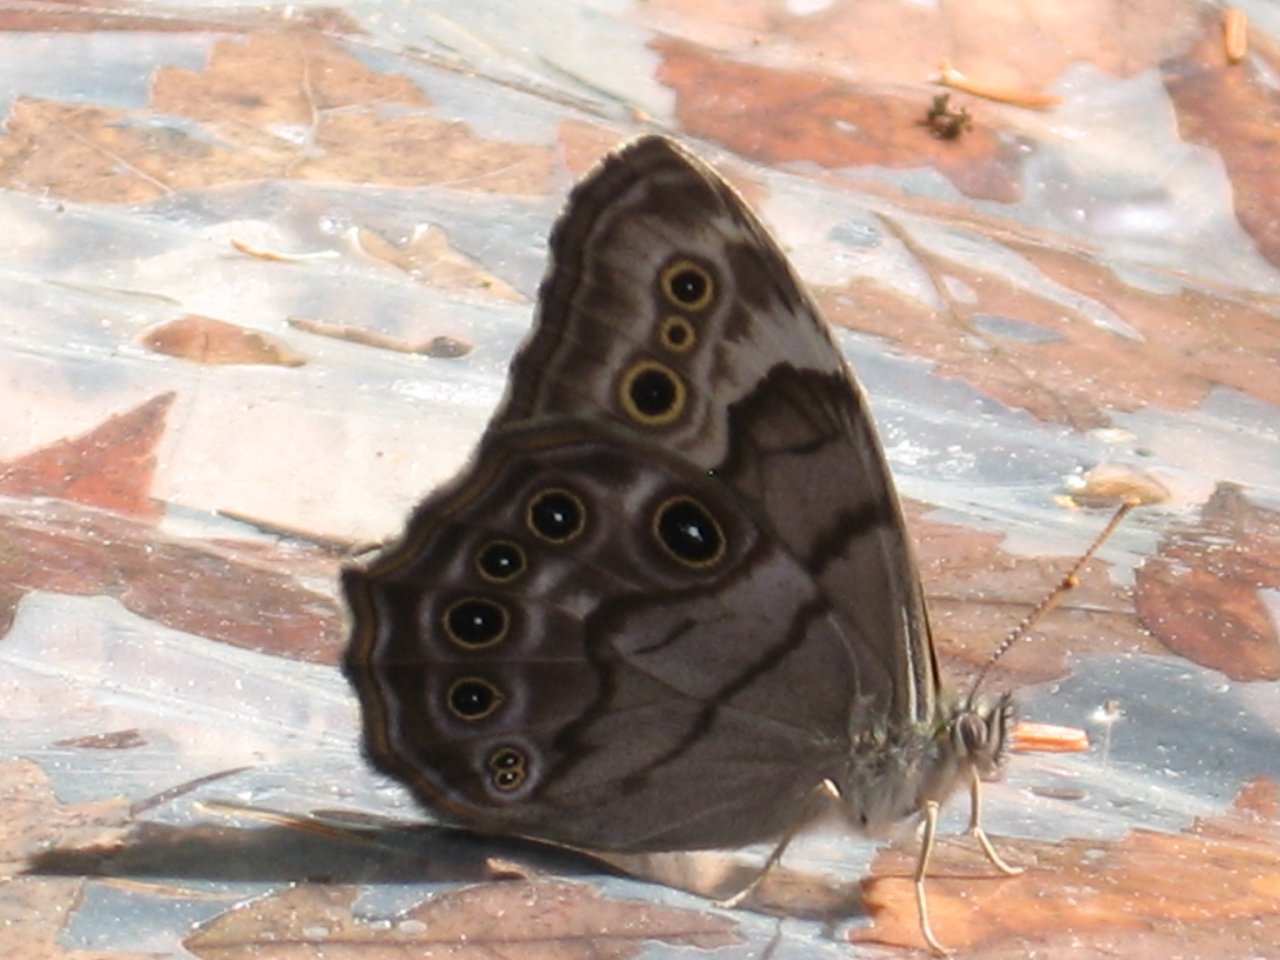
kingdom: Animalia
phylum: Arthropoda
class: Insecta
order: Lepidoptera
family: Nymphalidae
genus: Lethe
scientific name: Lethe anthedon
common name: Northern Pearly-Eye
